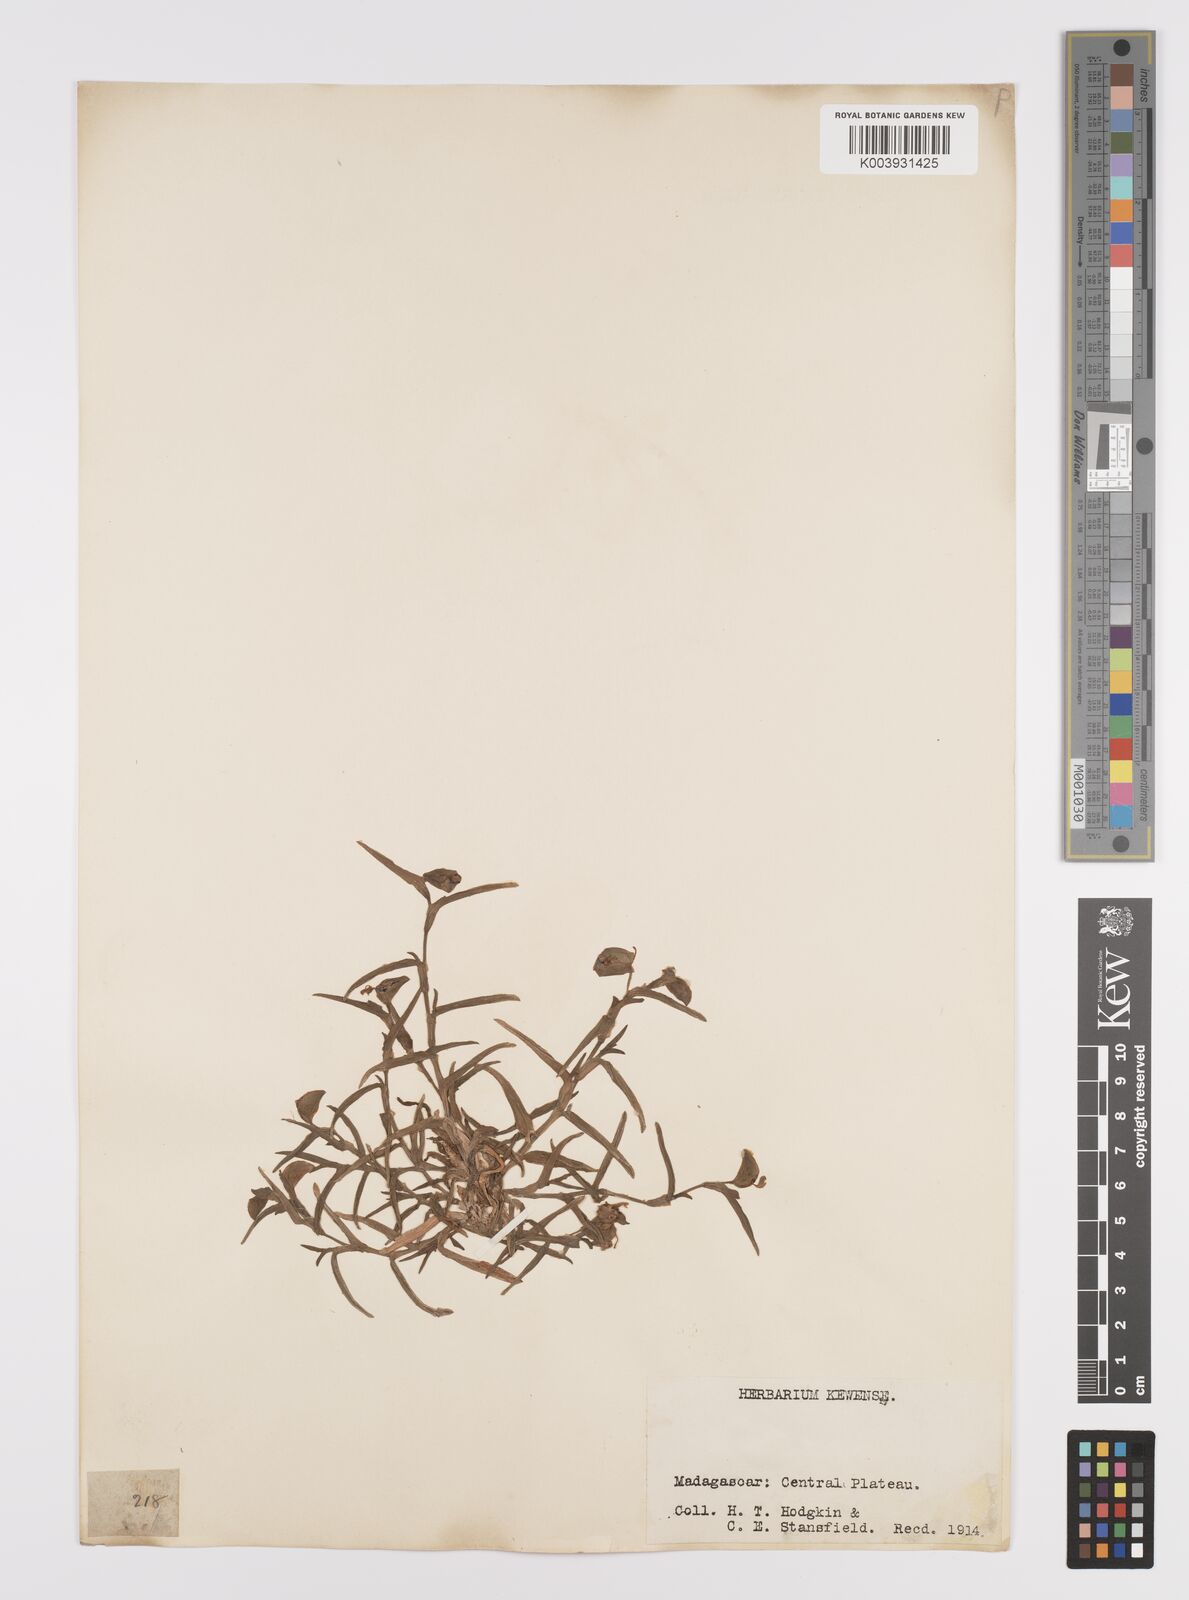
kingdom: Plantae
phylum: Tracheophyta
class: Liliopsida
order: Commelinales
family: Commelinaceae
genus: Commelina
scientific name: Commelina madagascarica
